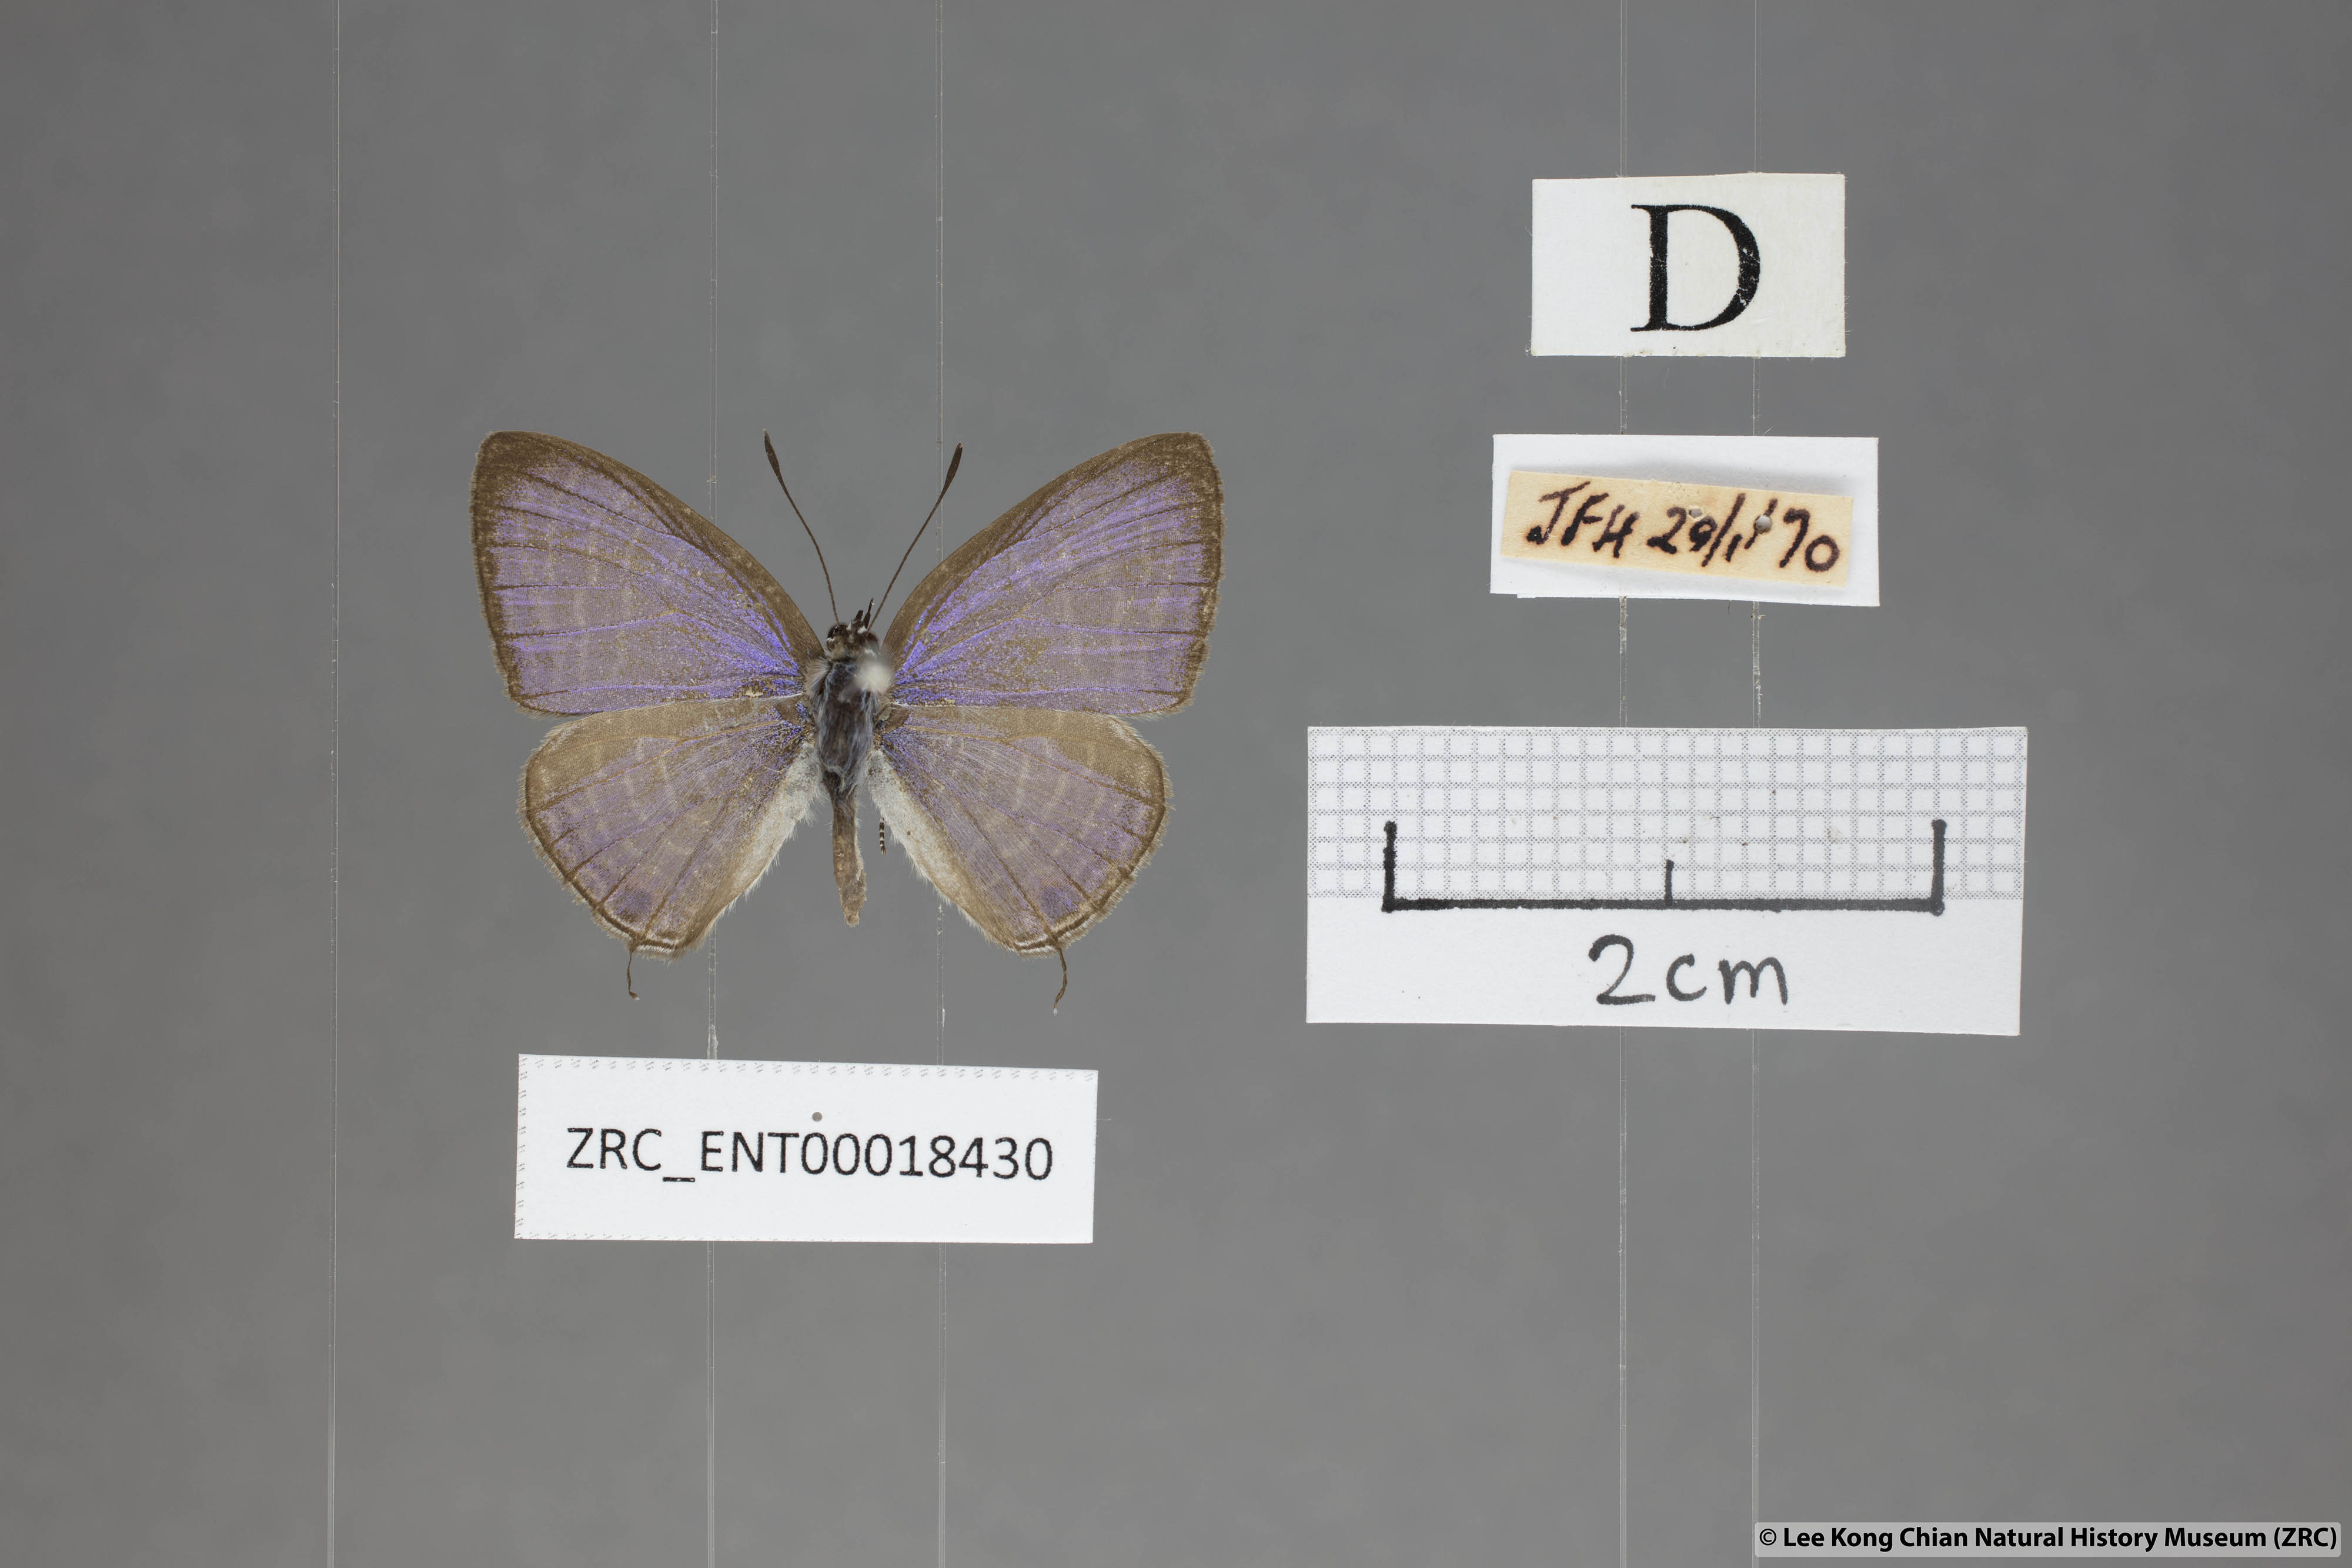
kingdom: Animalia
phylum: Arthropoda
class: Insecta
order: Lepidoptera
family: Lycaenidae
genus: Nacaduba
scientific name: Nacaduba pendleburyi
